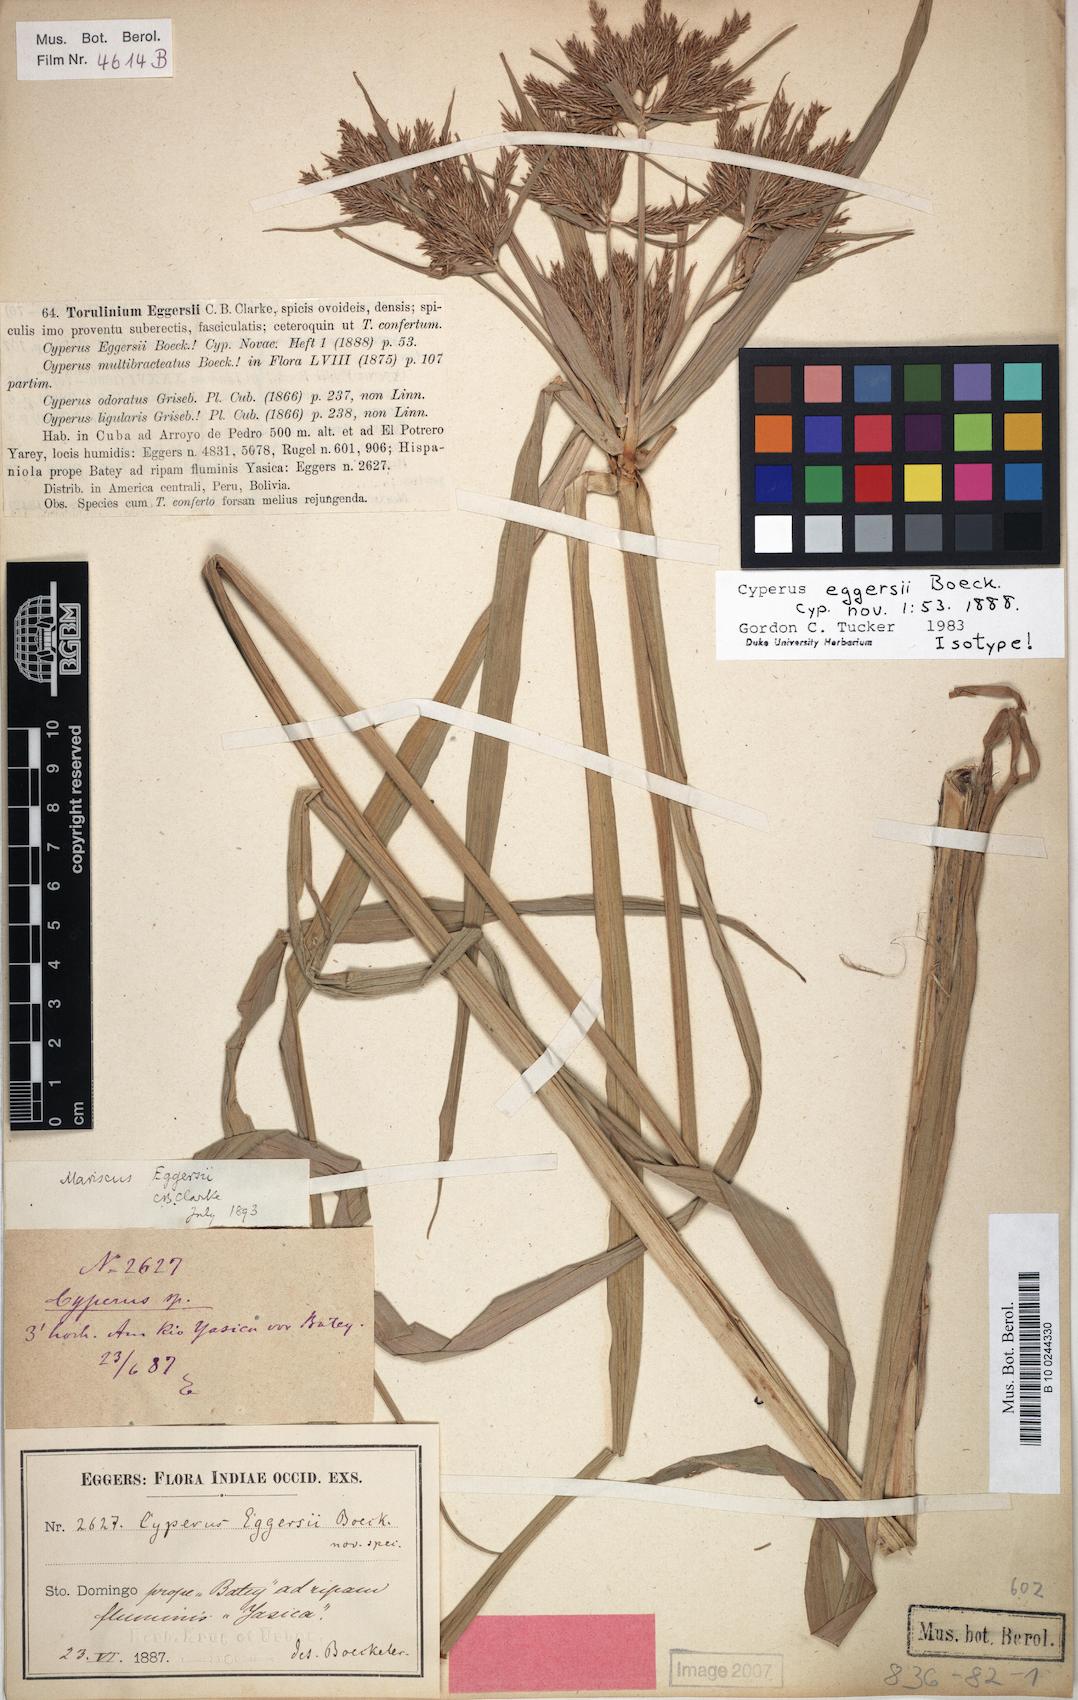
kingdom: Plantae
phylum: Tracheophyta
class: Liliopsida
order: Poales
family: Cyperaceae
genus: Cyperus
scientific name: Cyperus odoratus
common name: Fragrant flatsedge
